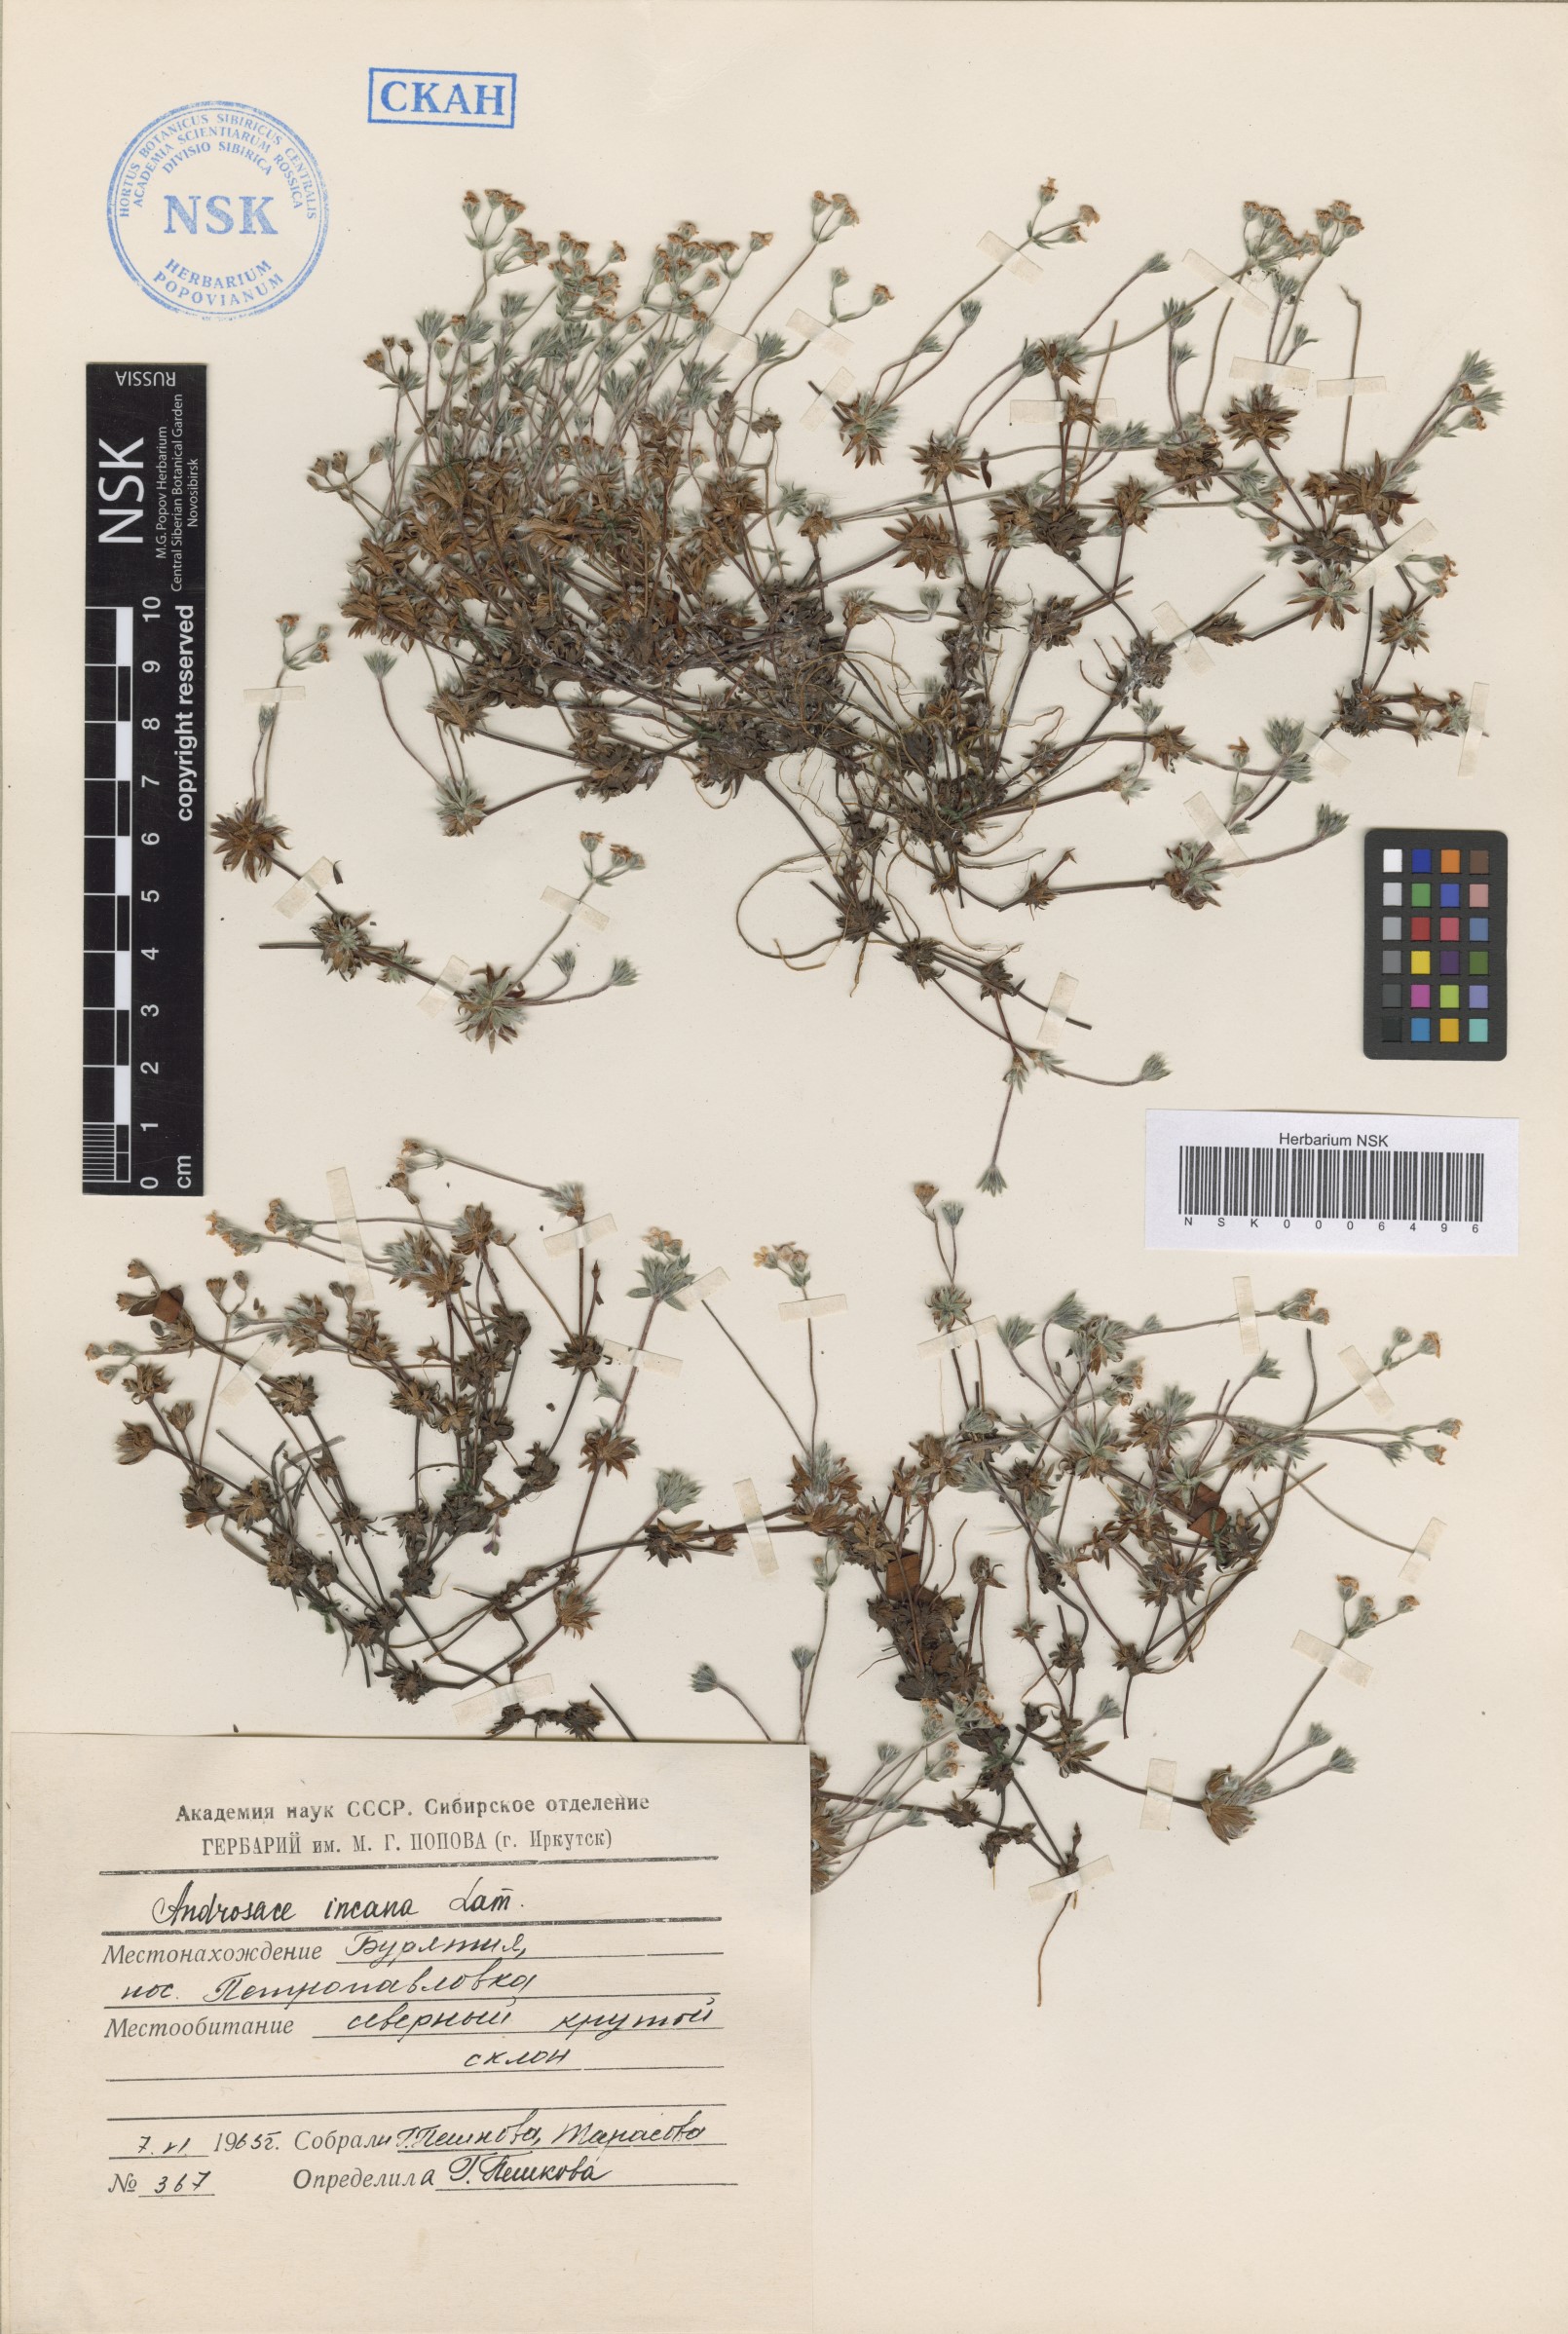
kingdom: Plantae
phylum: Tracheophyta
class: Magnoliopsida
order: Ericales
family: Primulaceae
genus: Androsace
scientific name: Androsace incana
